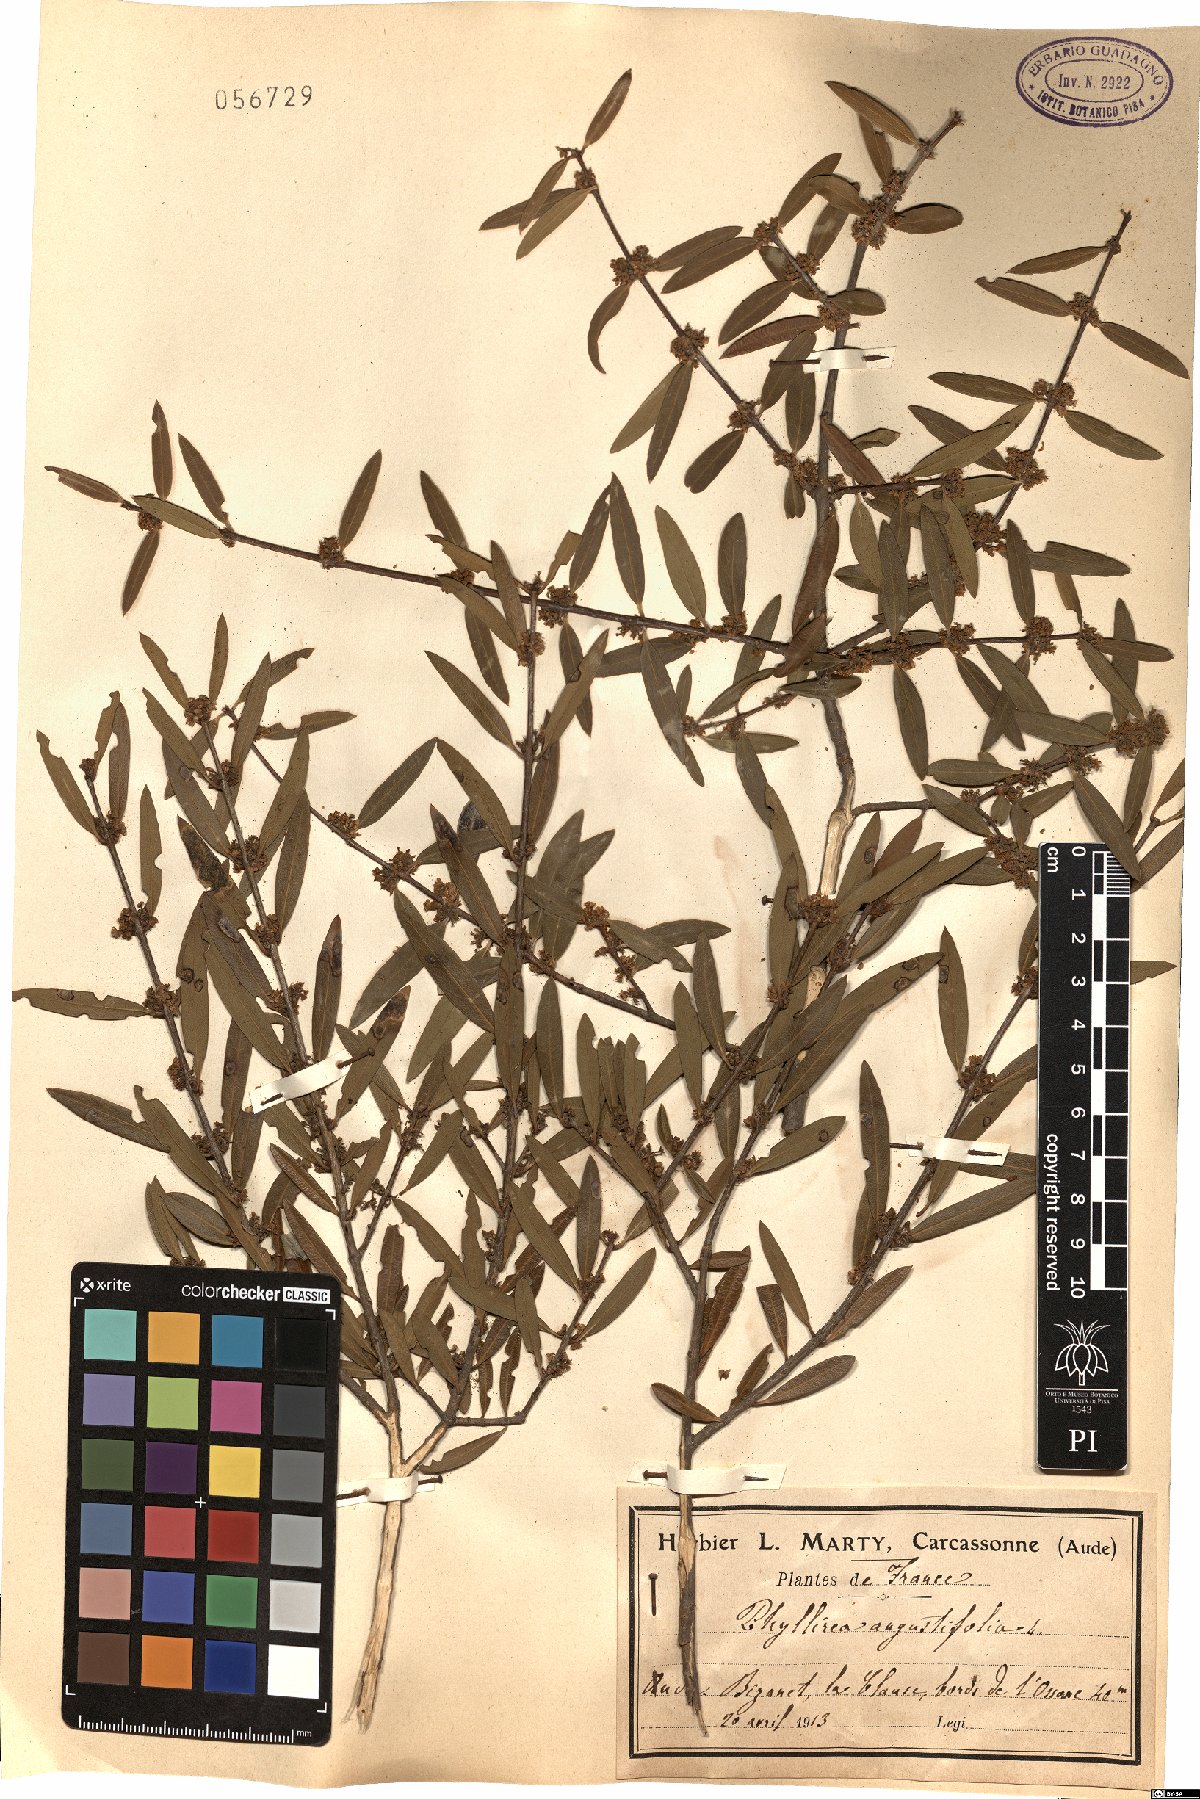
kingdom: Plantae
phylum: Tracheophyta
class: Magnoliopsida
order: Lamiales
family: Oleaceae
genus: Phillyrea
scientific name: Phillyrea angustifolia
